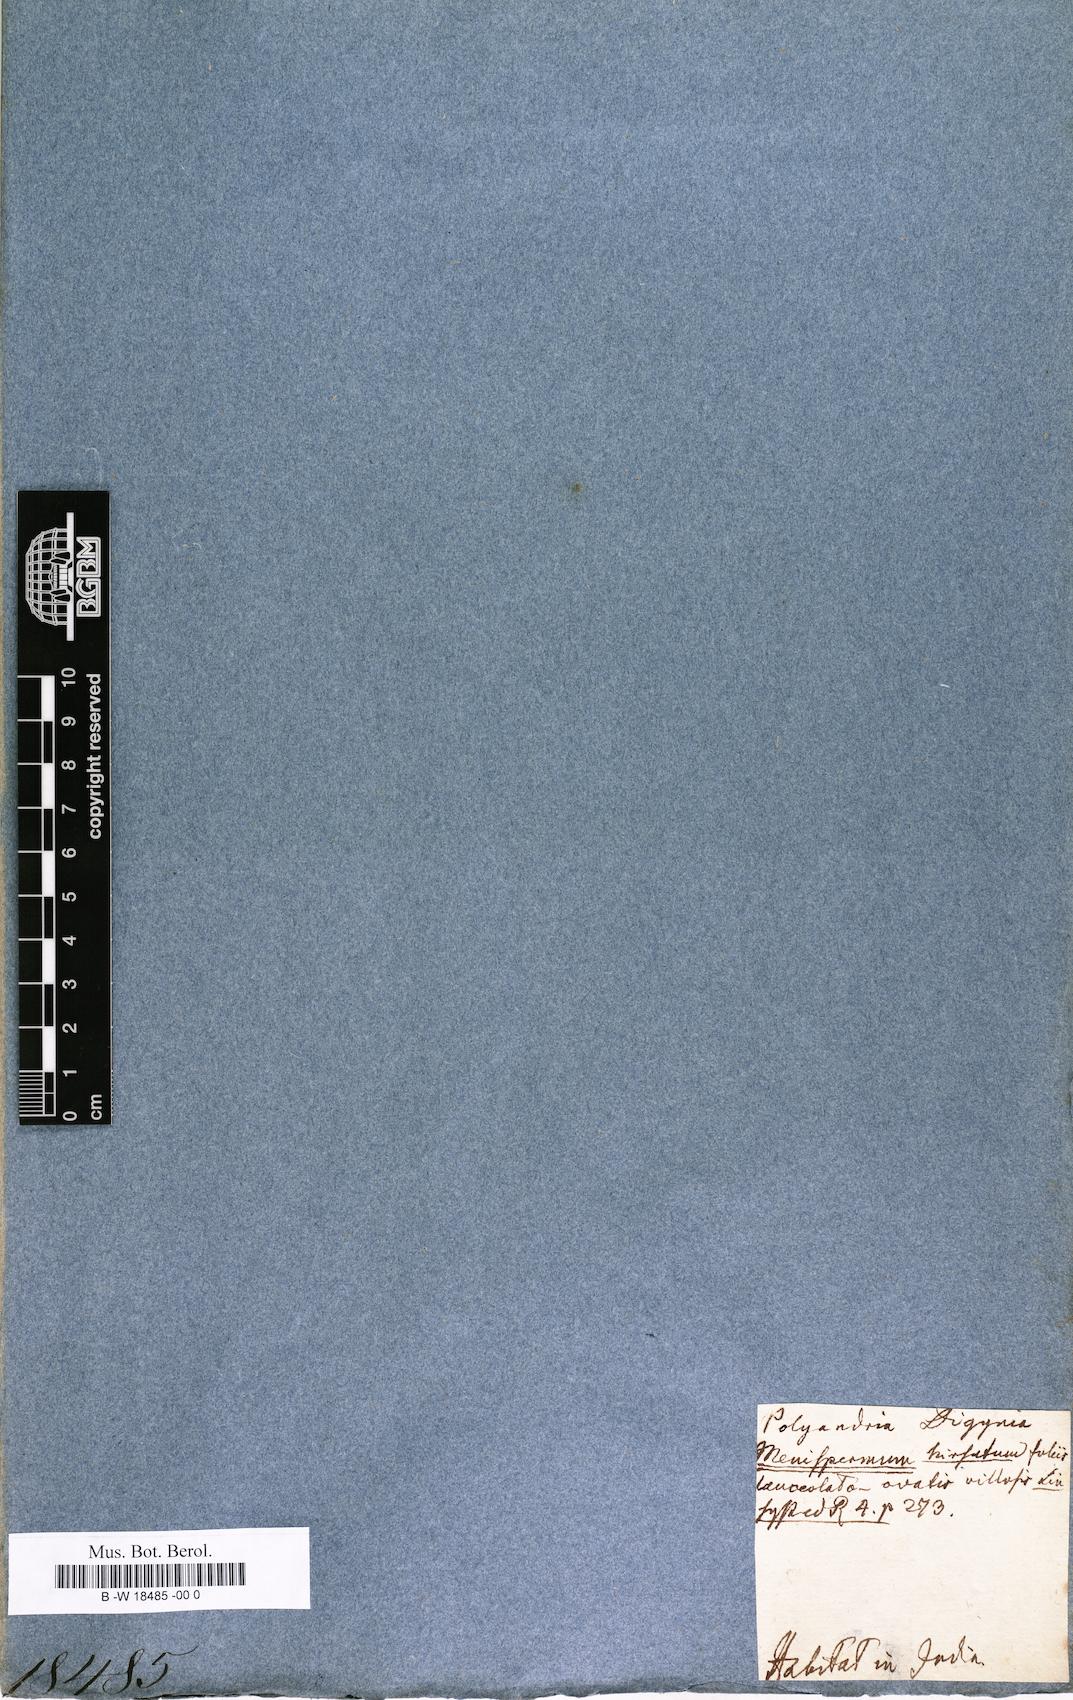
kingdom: Plantae
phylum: Tracheophyta
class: Magnoliopsida
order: Ranunculales
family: Menispermaceae
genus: Cocculus
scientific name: Cocculus hirsutus
